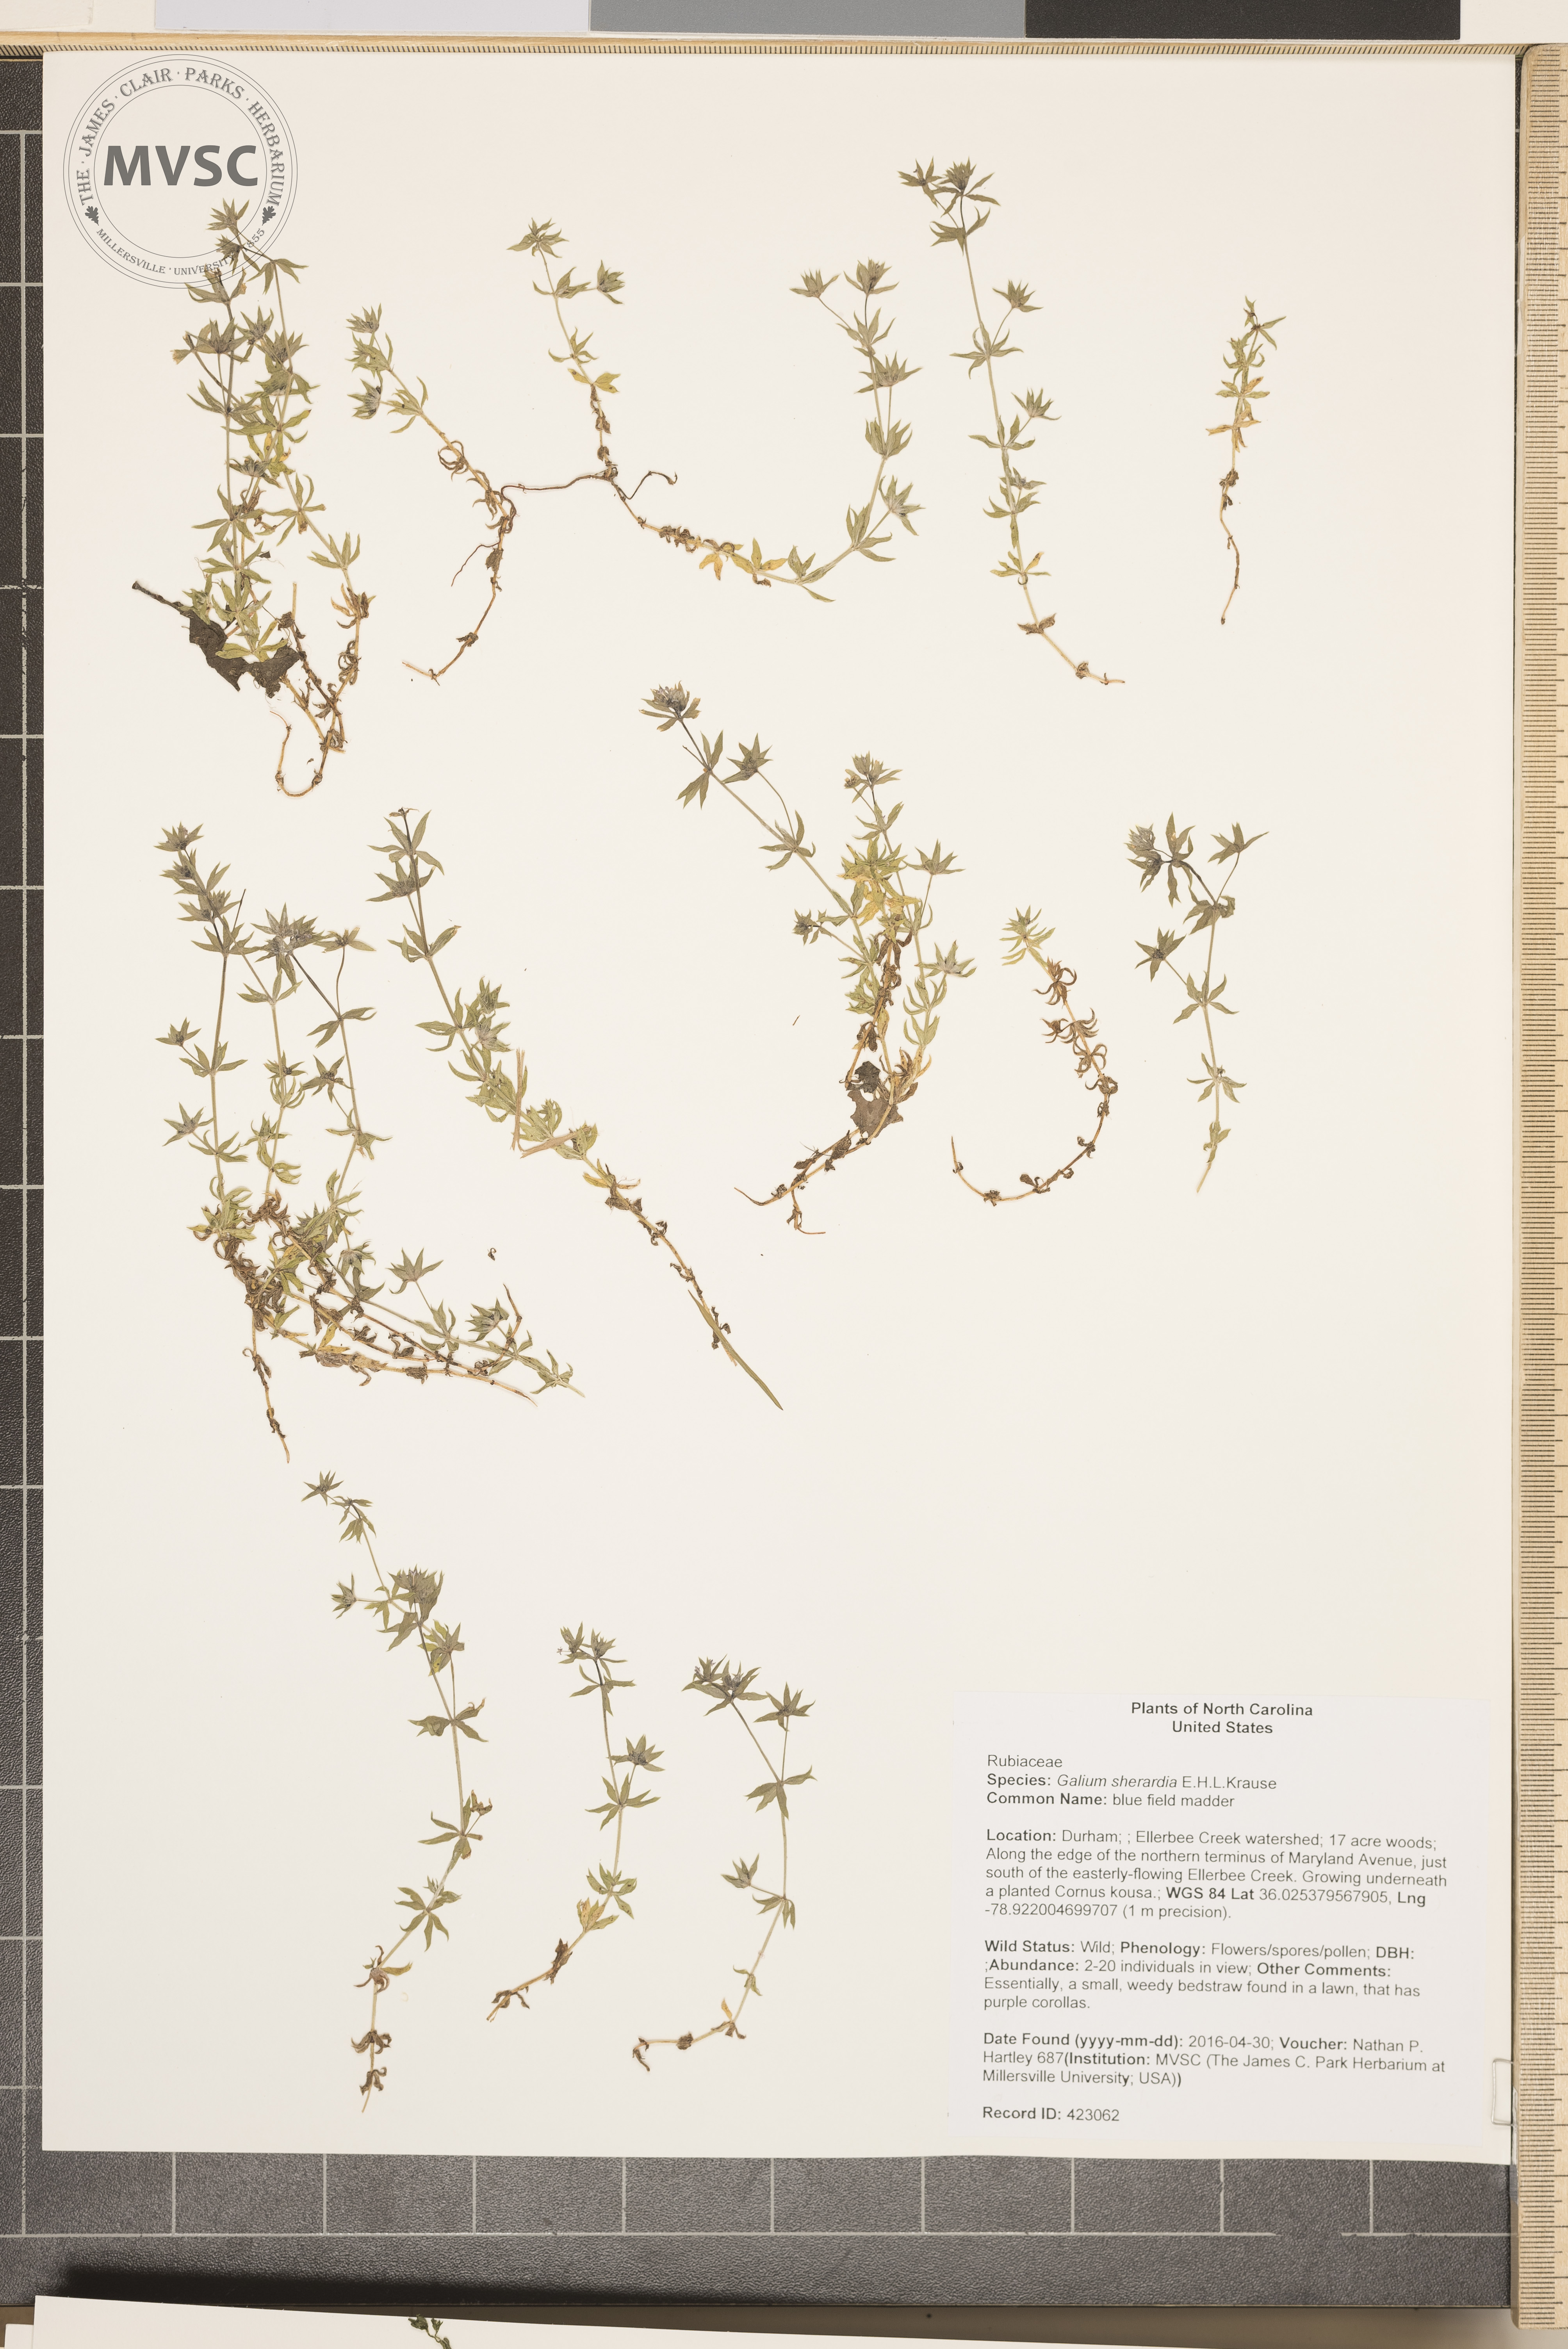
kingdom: Plantae
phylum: Tracheophyta
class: Magnoliopsida
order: Gentianales
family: Rubiaceae
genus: Sherardia
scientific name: Sherardia arvensis
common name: blue field madder
